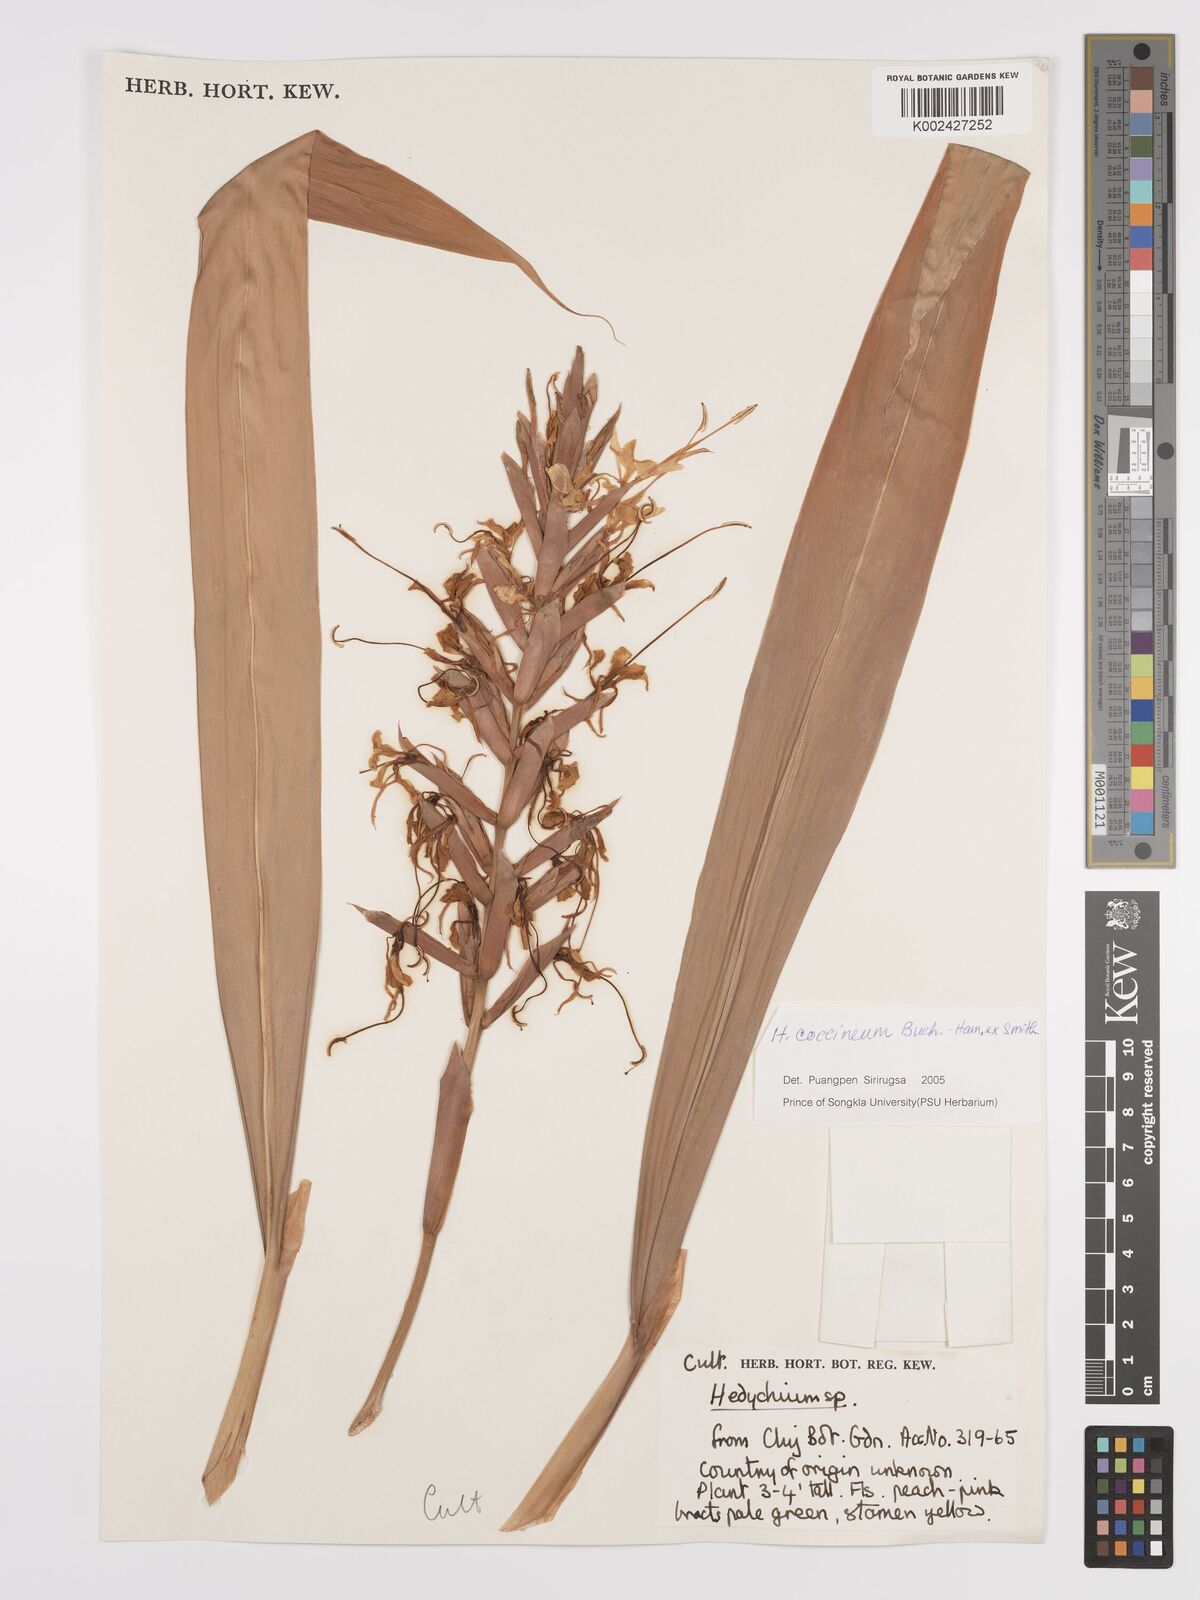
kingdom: Plantae
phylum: Tracheophyta
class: Liliopsida
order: Zingiberales
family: Zingiberaceae
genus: Hedychium
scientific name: Hedychium coccineum
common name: Red ginger-lily
